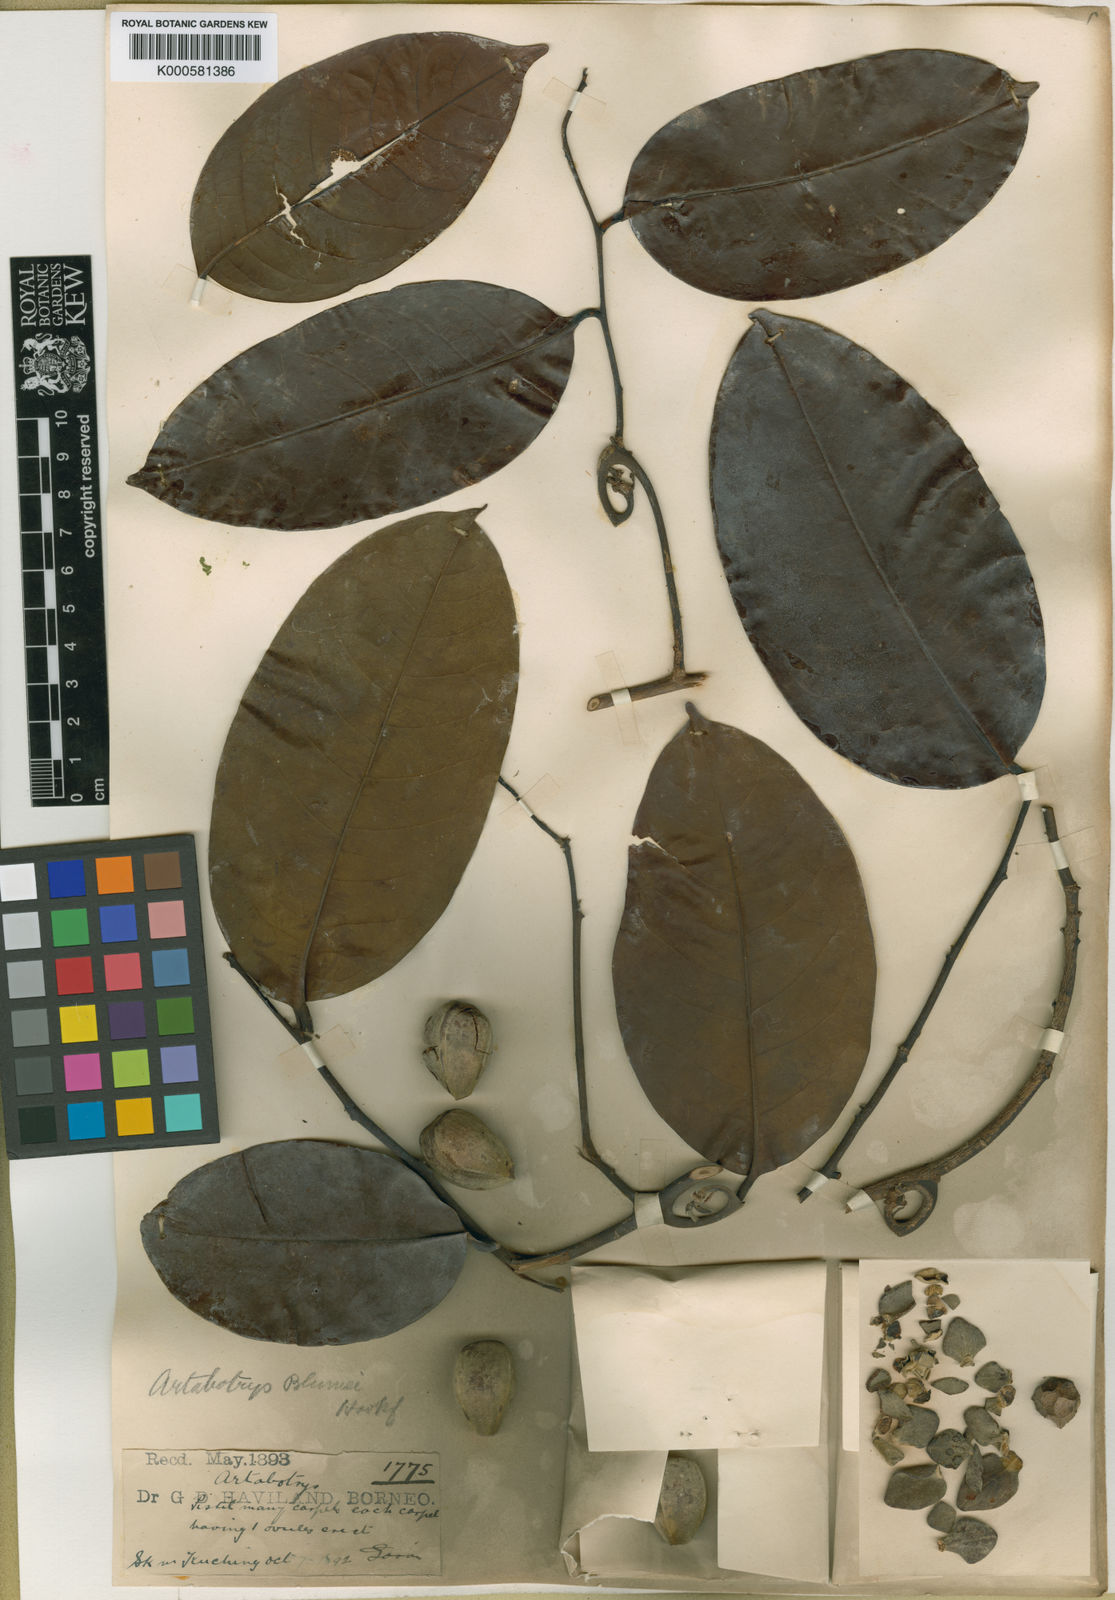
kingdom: Plantae
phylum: Tracheophyta
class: Magnoliopsida
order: Magnoliales
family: Annonaceae
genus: Artabotrys
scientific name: Artabotrys pandanicarpus
